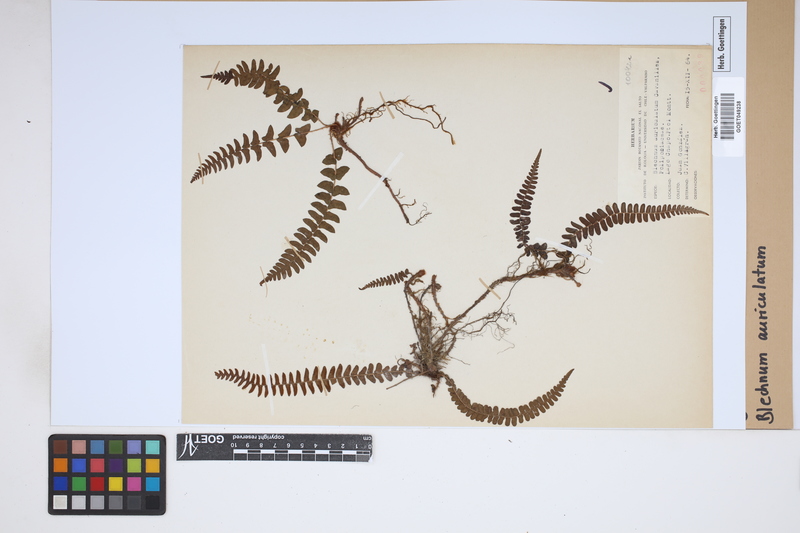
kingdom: Plantae
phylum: Tracheophyta
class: Polypodiopsida
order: Polypodiales
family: Blechnaceae
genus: Blechnum
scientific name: Blechnum auriculatum
